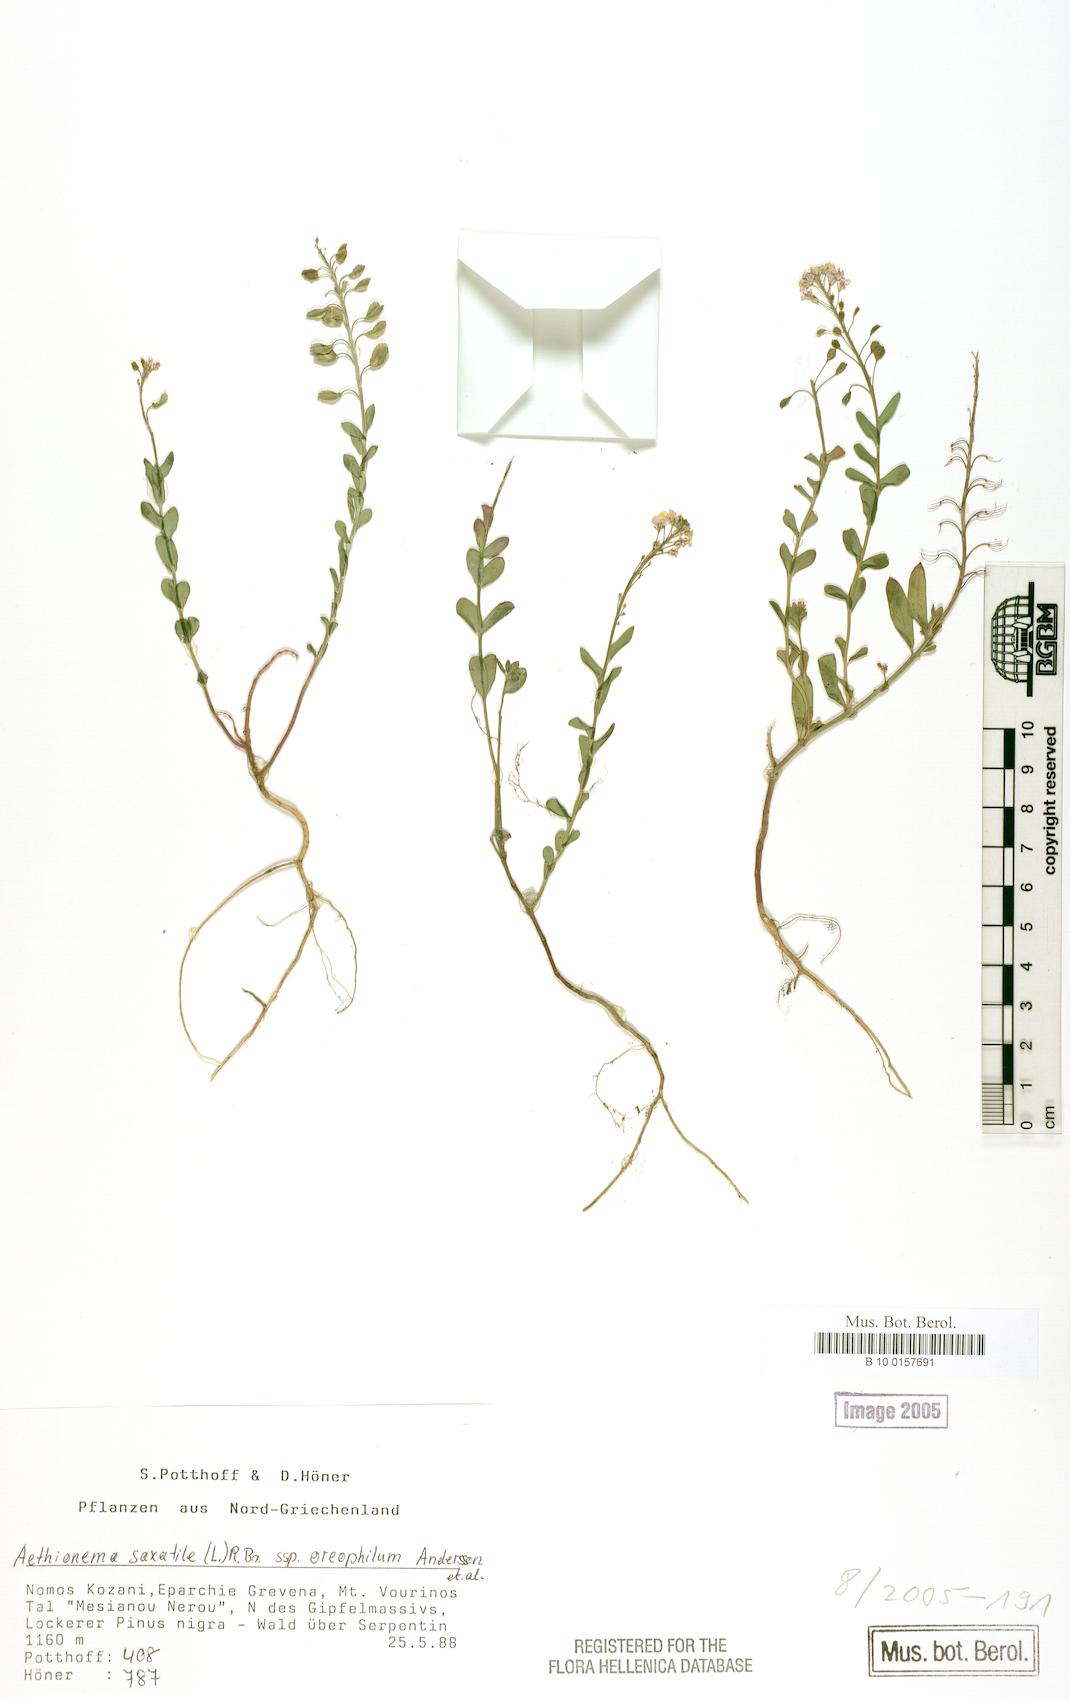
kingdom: Plantae
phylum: Tracheophyta
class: Magnoliopsida
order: Brassicales
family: Brassicaceae
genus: Aethionema
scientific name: Aethionema saxatile
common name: Burnt candytuft
